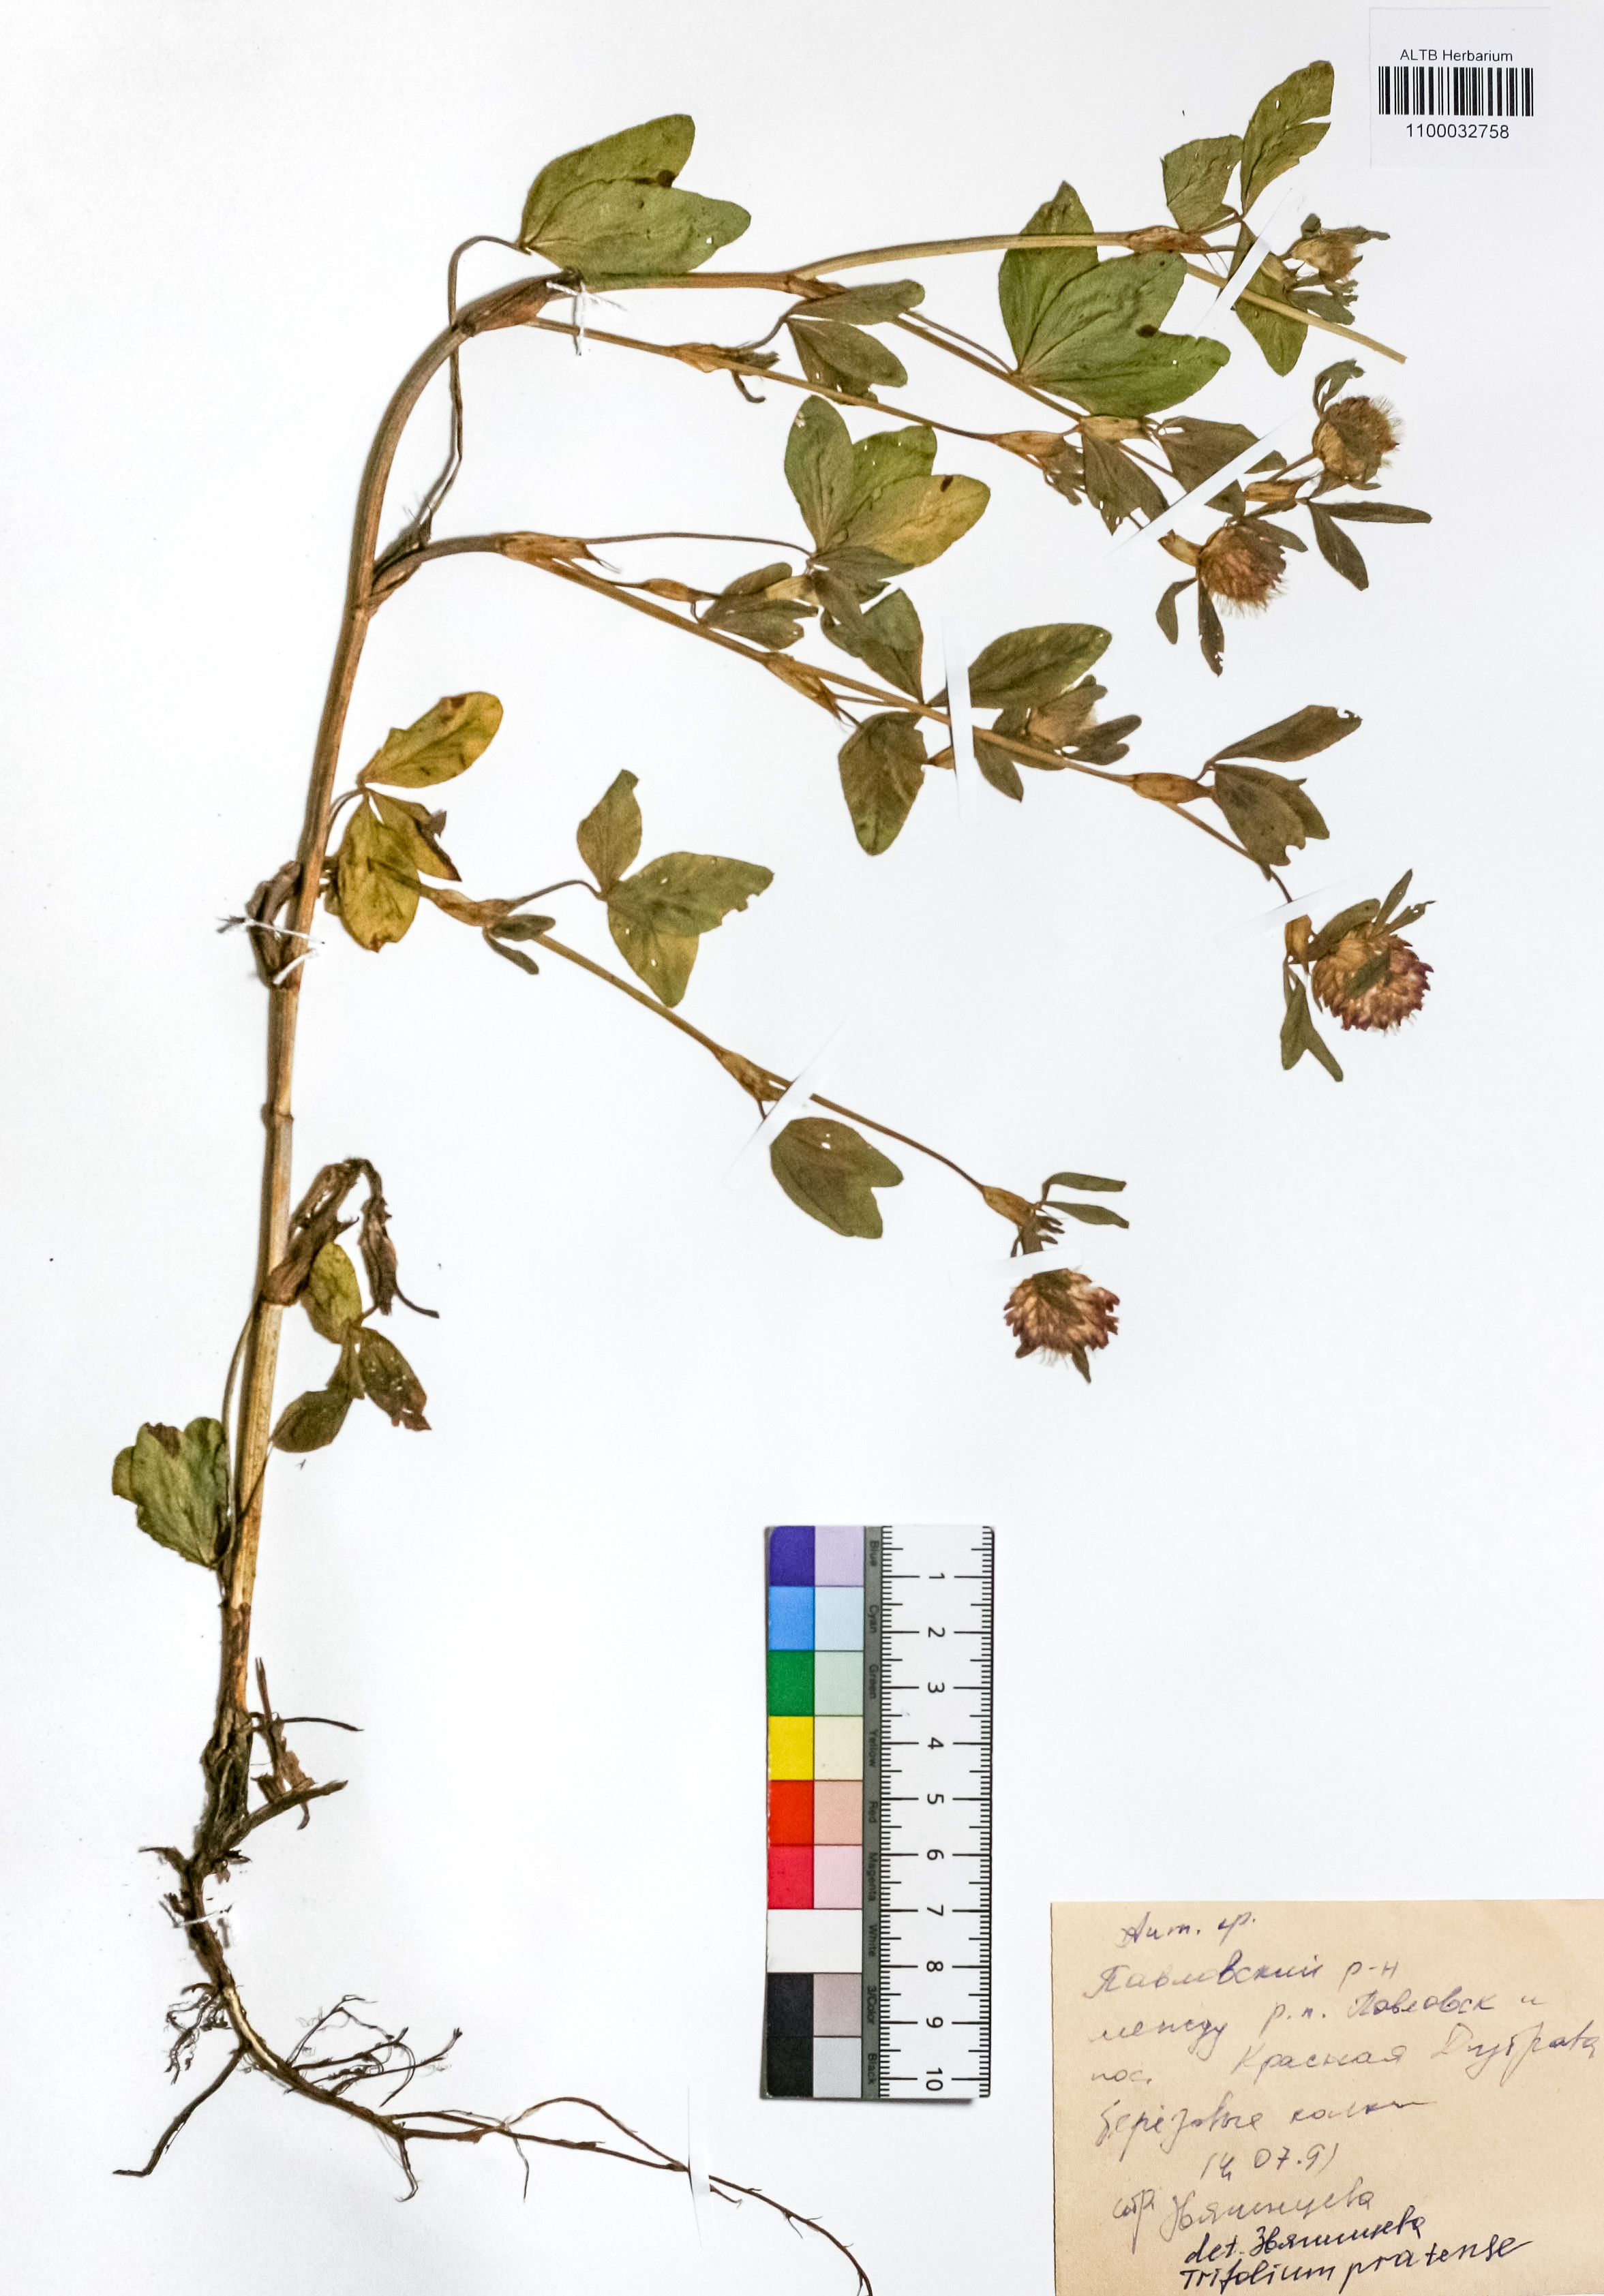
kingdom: Plantae
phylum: Tracheophyta
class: Magnoliopsida
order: Fabales
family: Fabaceae
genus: Trifolium
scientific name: Trifolium pratense
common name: Red clover
